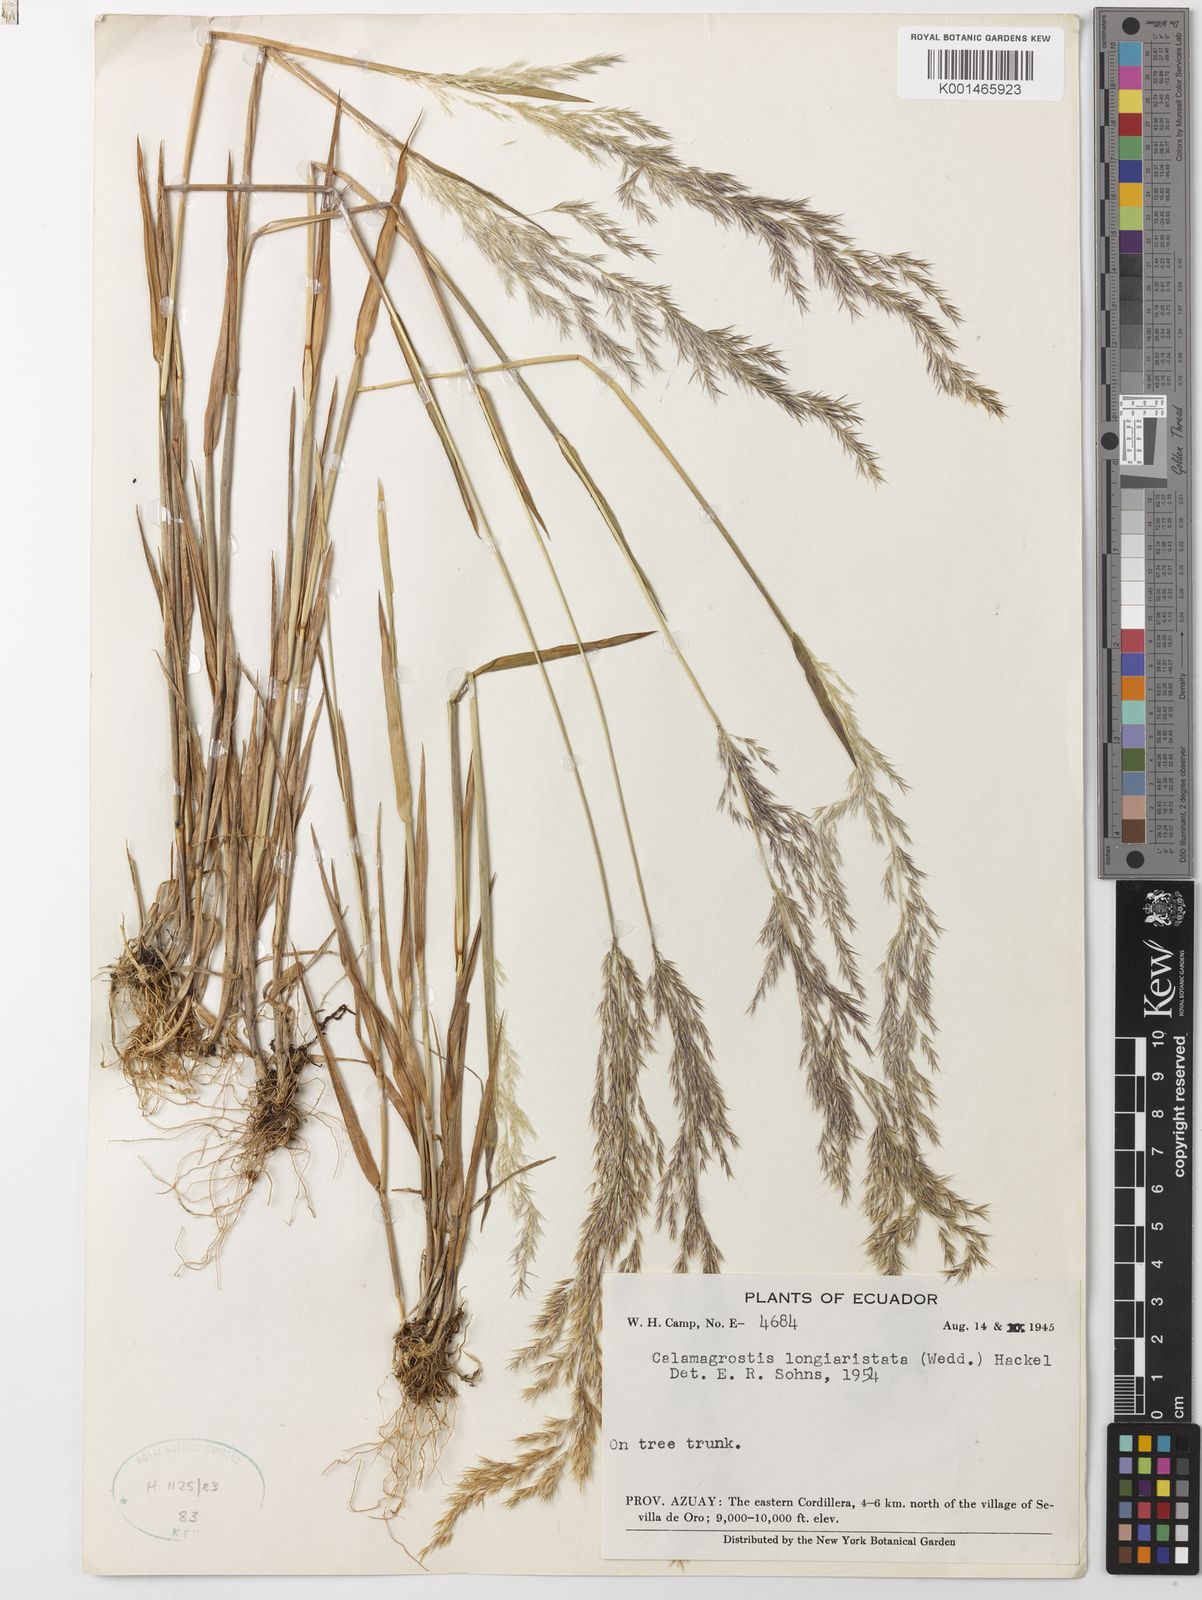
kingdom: Plantae
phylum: Tracheophyta
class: Liliopsida
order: Poales
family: Poaceae
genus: Cinnagrostis
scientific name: Cinnagrostis rupestris
